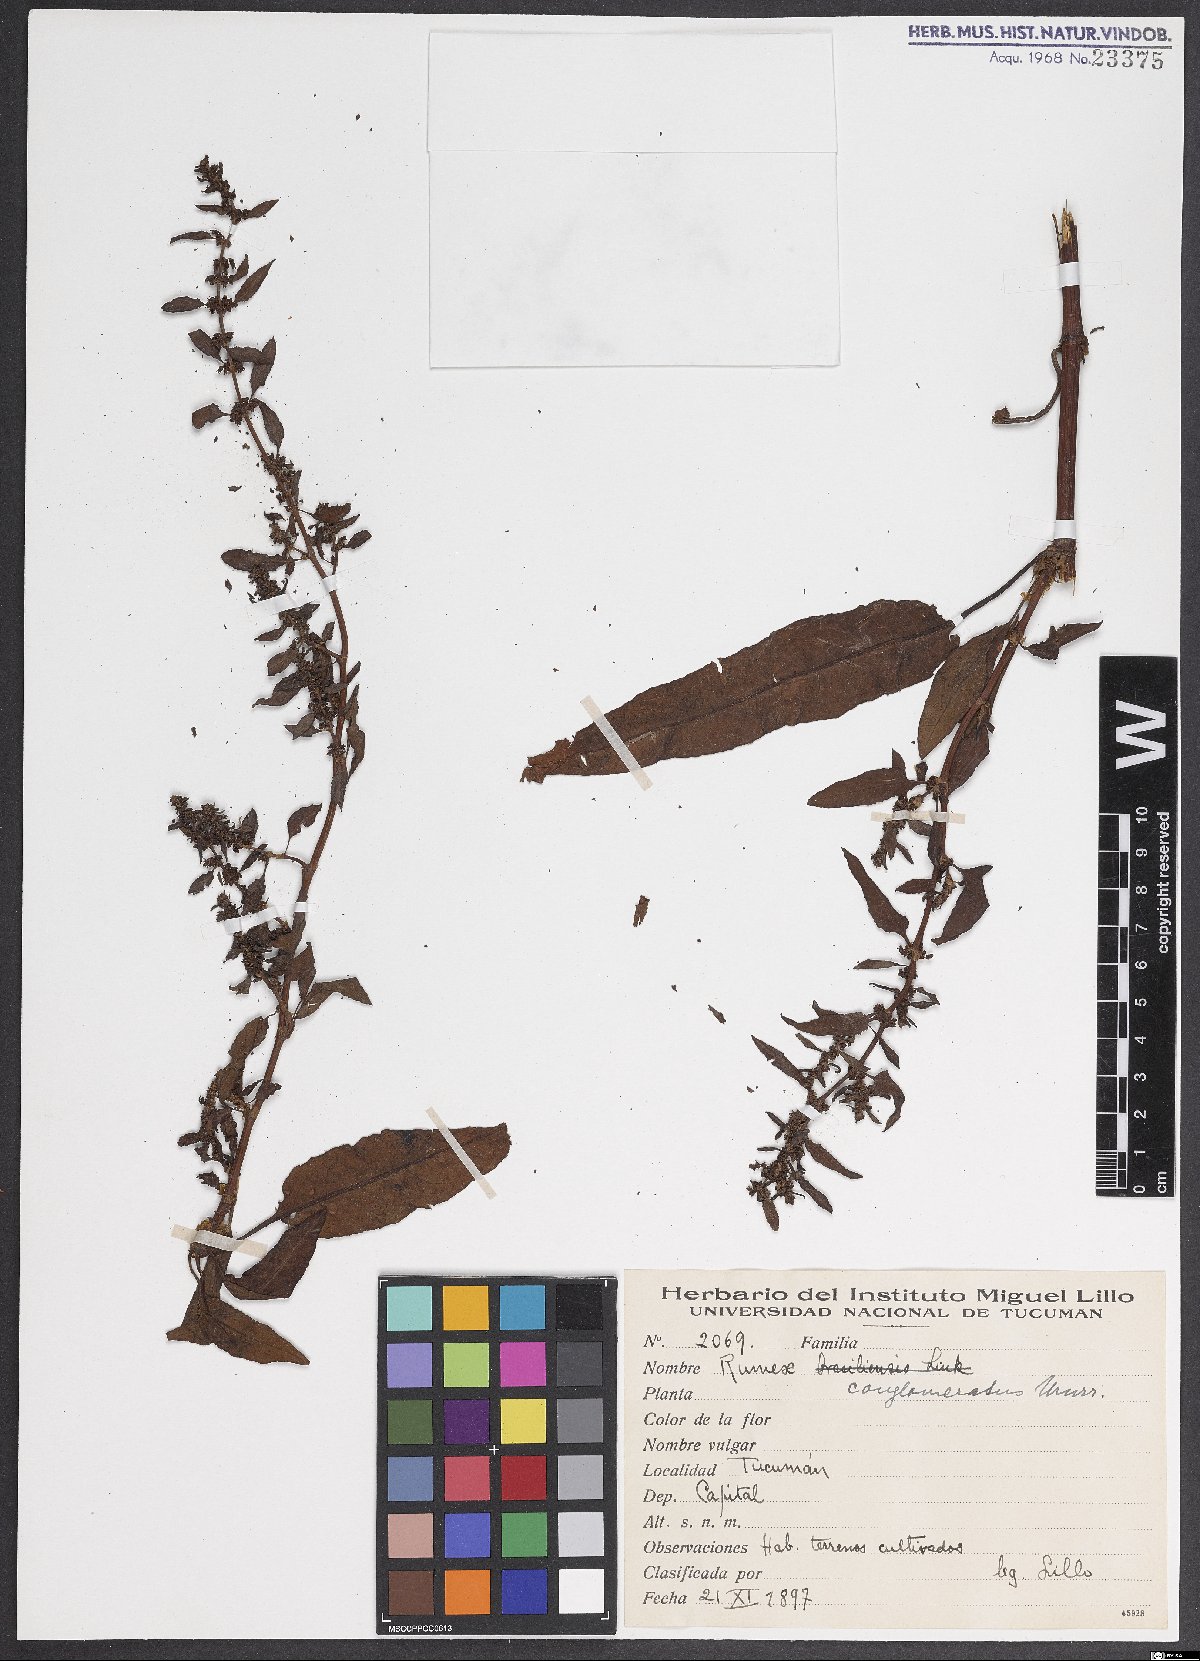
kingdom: Plantae
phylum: Tracheophyta
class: Magnoliopsida
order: Caryophyllales
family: Polygonaceae
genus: Rumex
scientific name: Rumex conglomeratus
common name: Clustered dock
